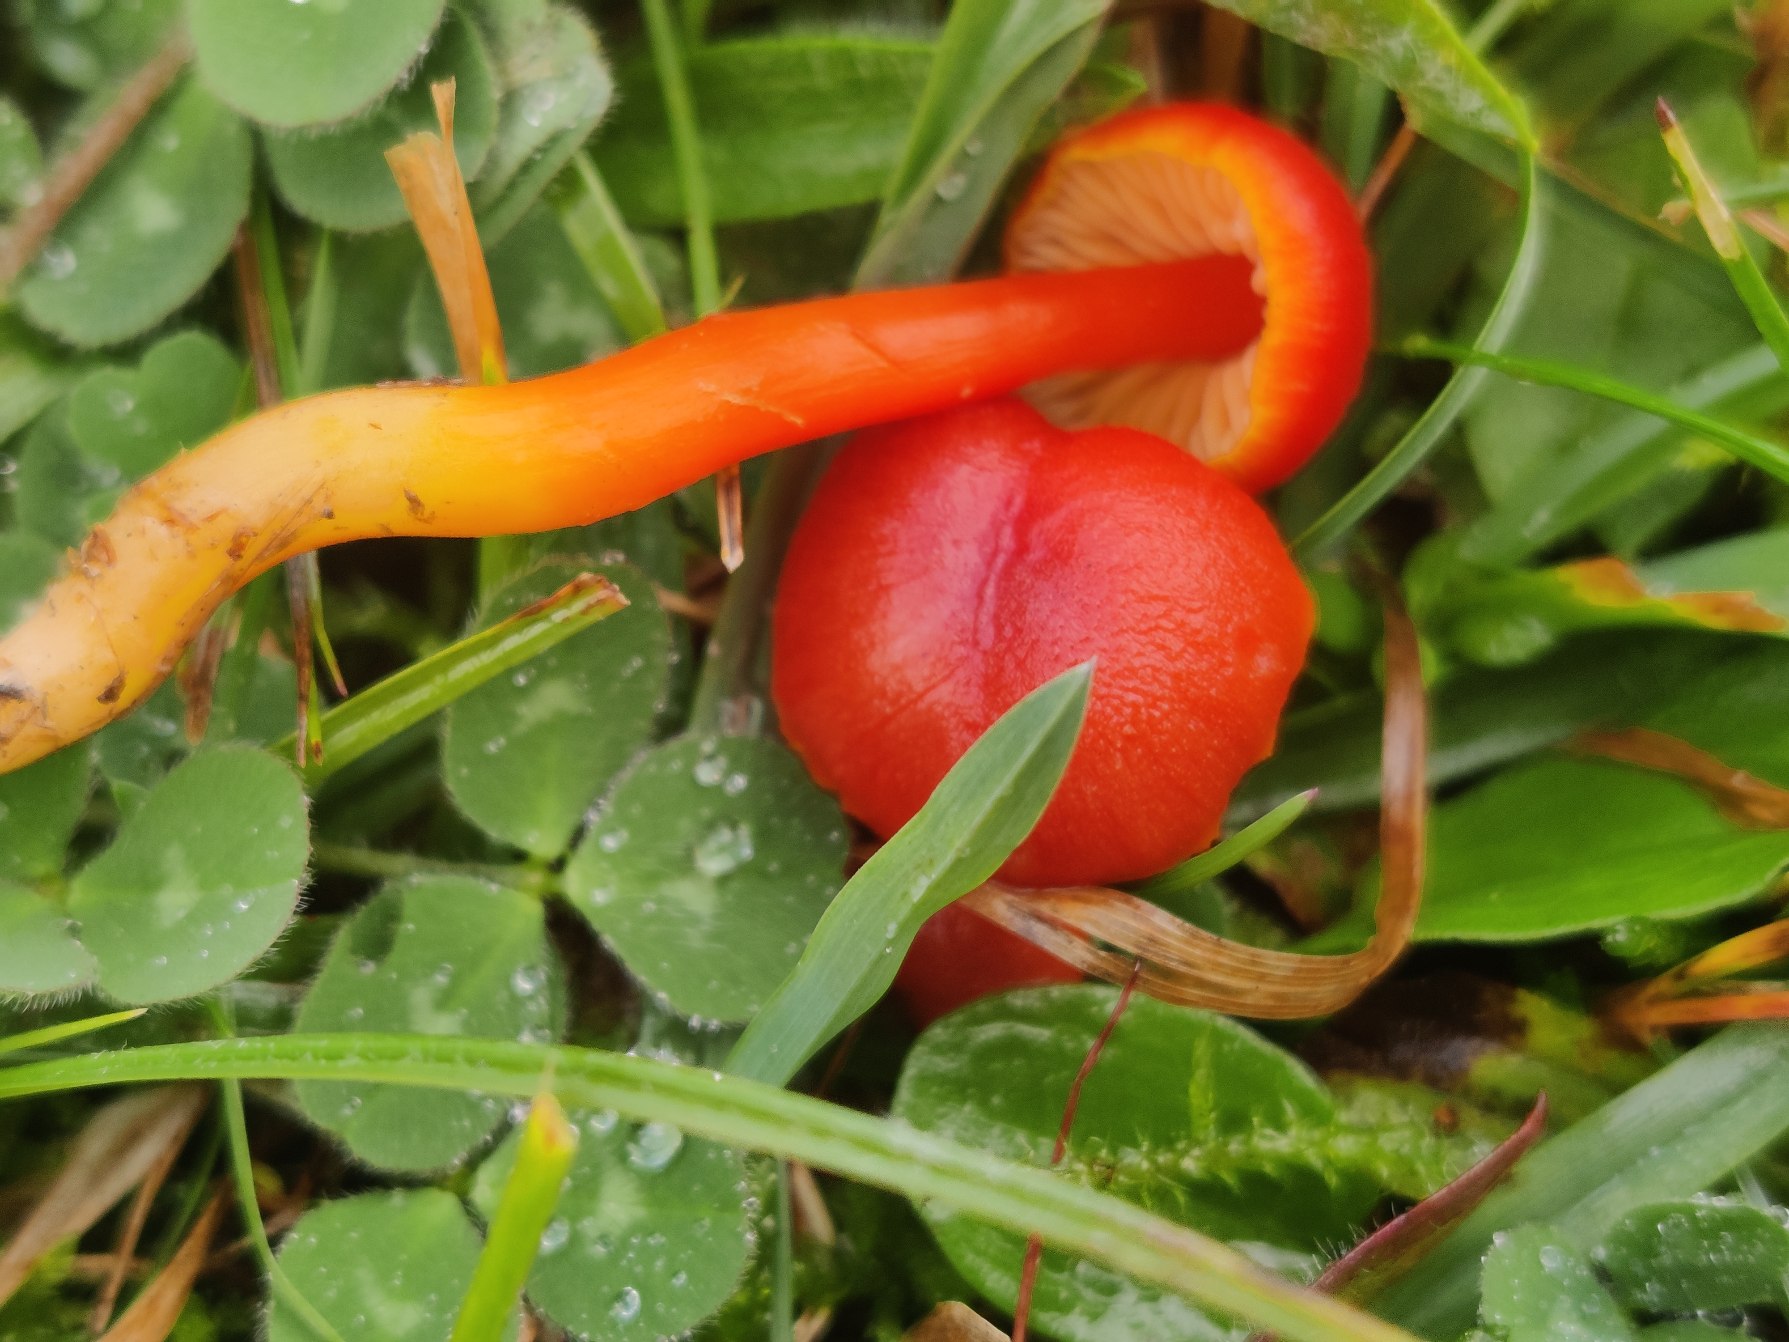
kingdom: Fungi
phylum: Basidiomycota
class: Agaricomycetes
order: Agaricales
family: Hygrophoraceae
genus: Hygrocybe
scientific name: Hygrocybe miniata
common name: Mønje-vokshat
